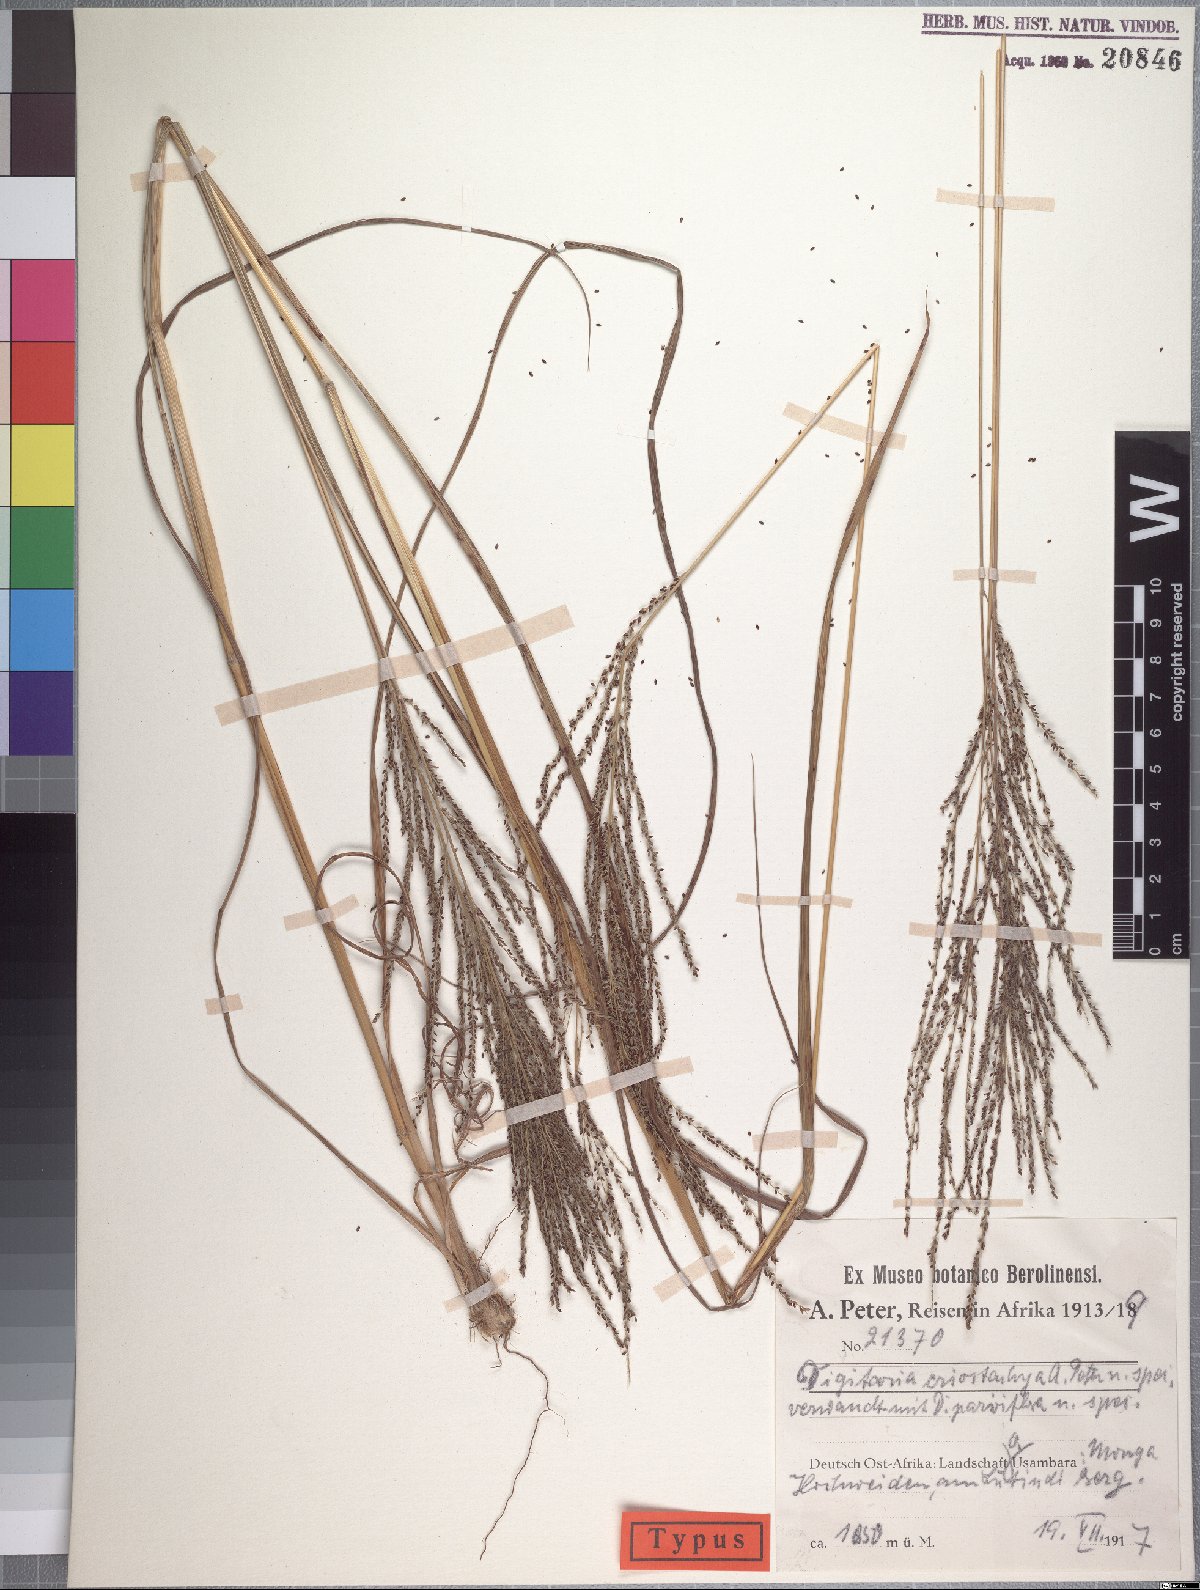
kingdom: Plantae
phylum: Tracheophyta
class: Liliopsida
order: Poales
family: Poaceae
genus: Digitaria
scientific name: Digitaria diagonalis
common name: Brown-seed finger grass
